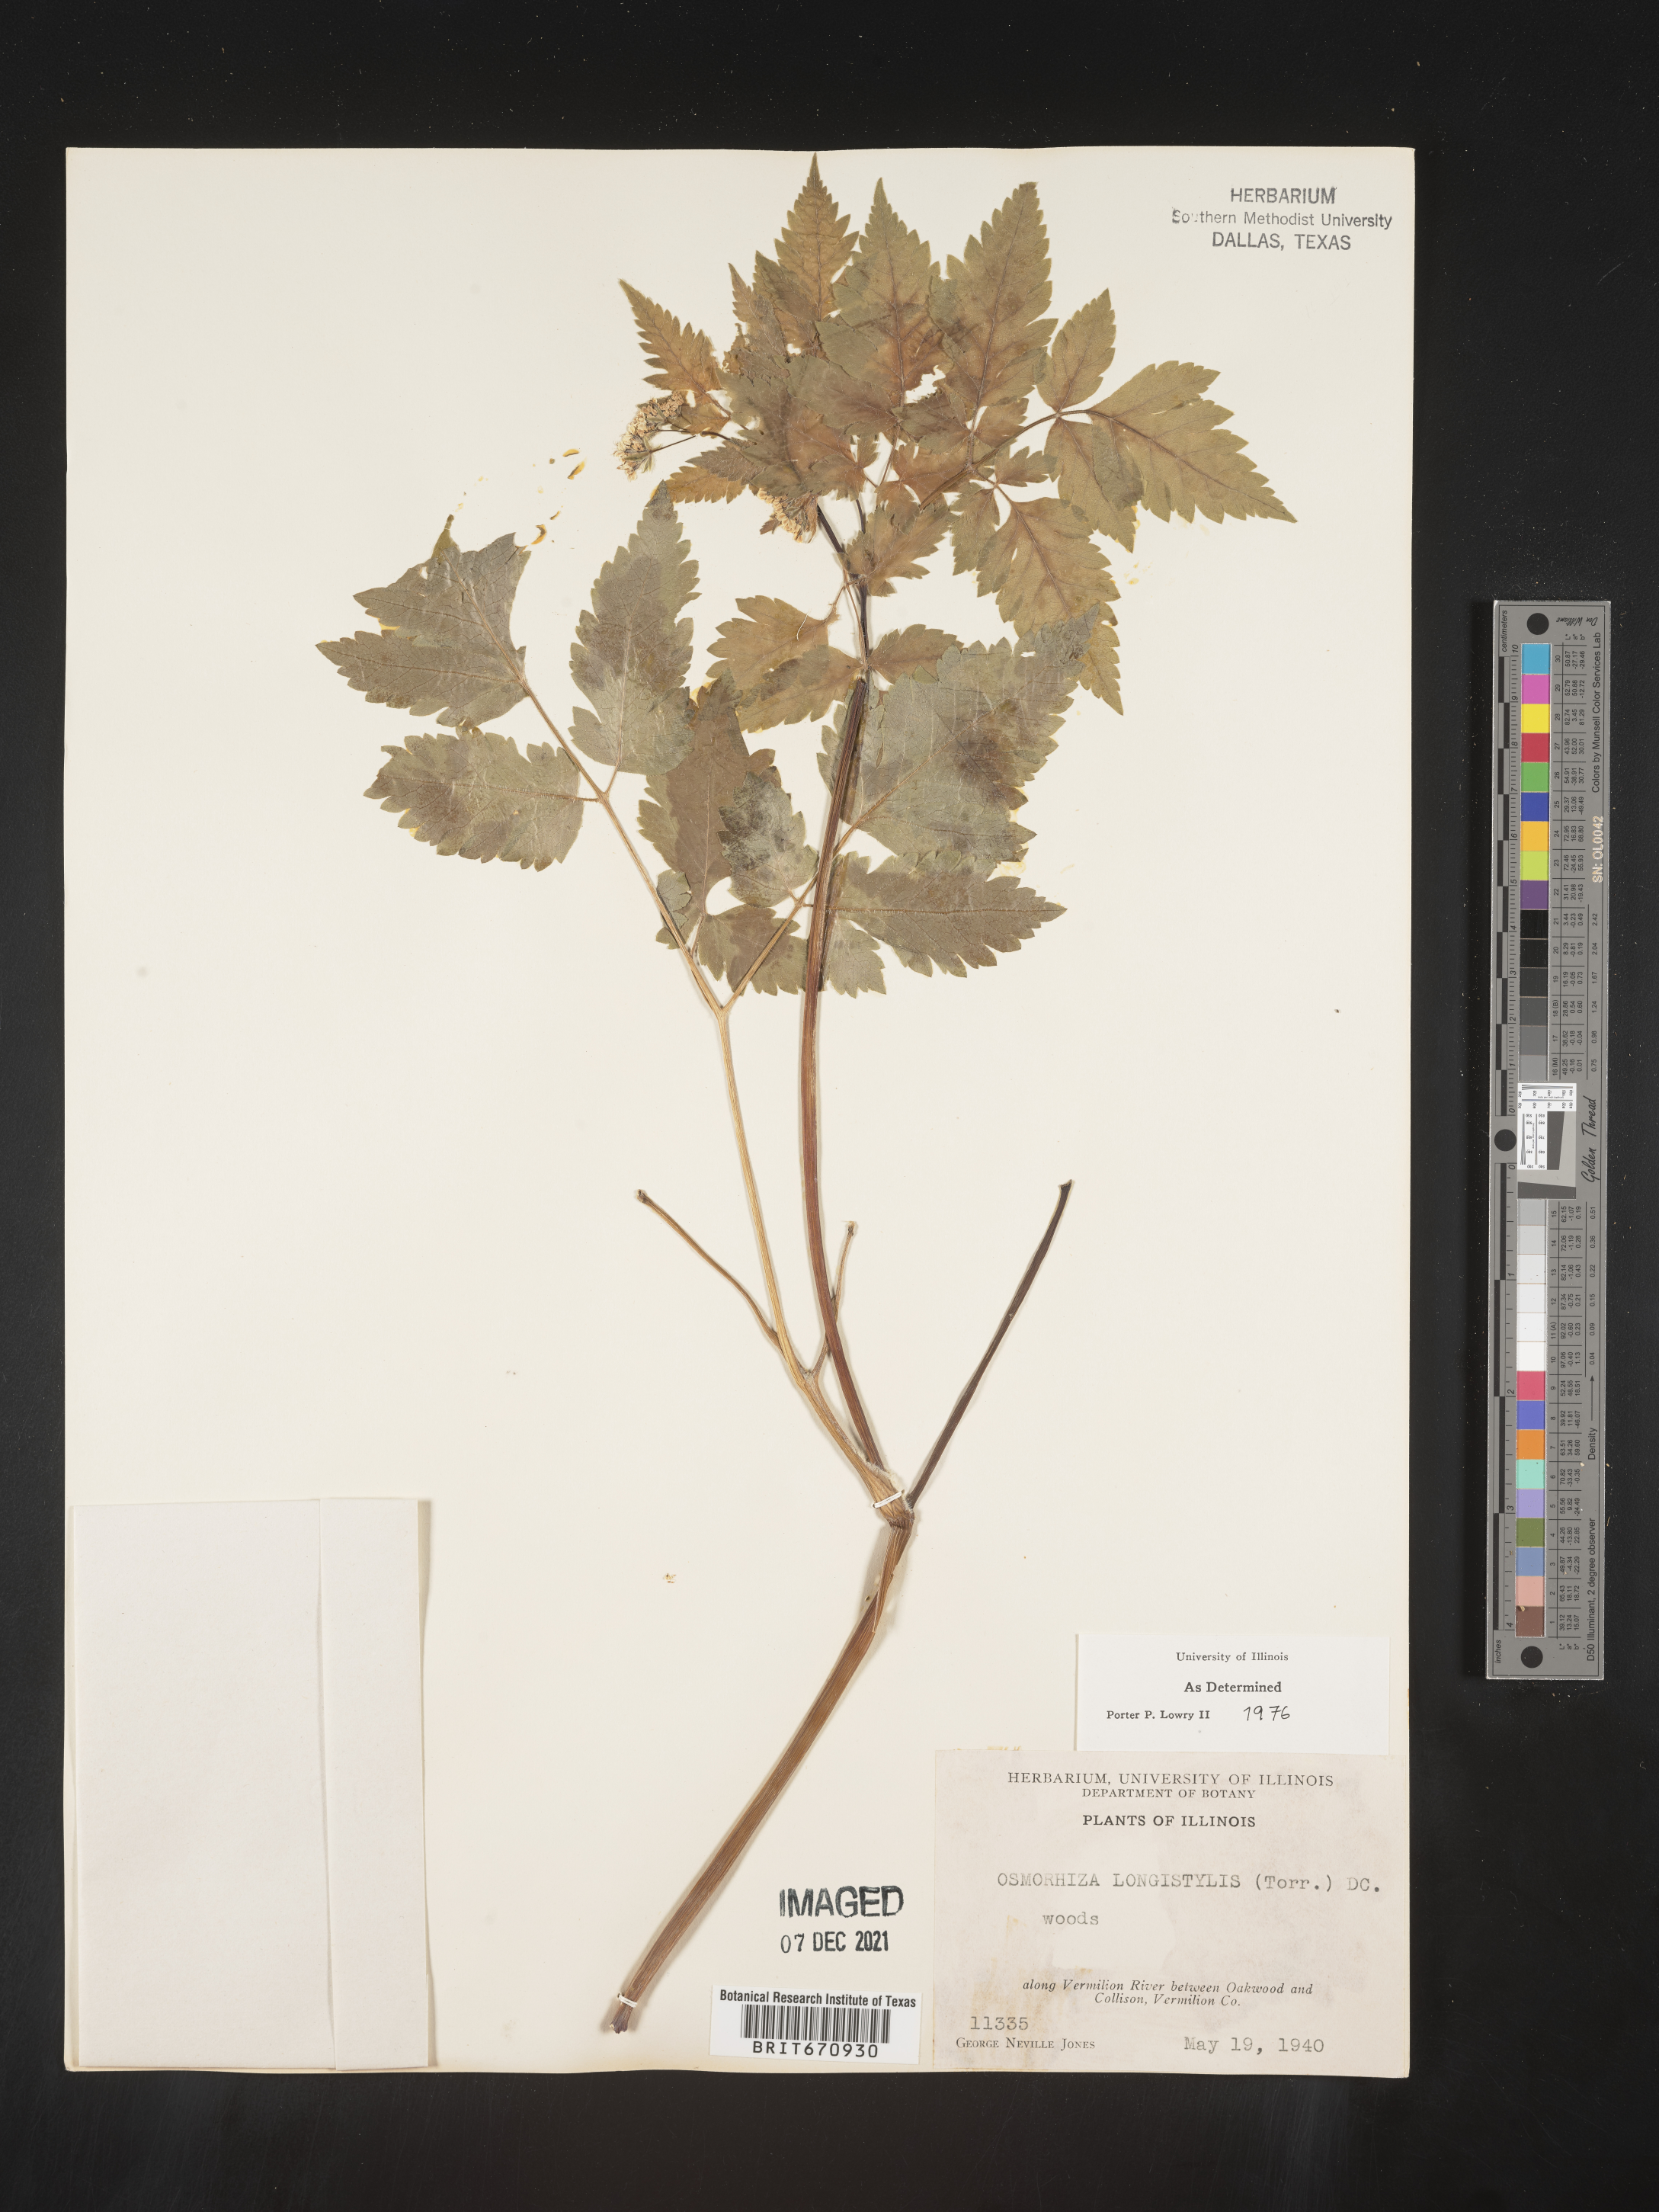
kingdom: Plantae
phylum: Tracheophyta
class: Magnoliopsida
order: Apiales
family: Apiaceae
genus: Osmorhiza
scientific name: Osmorhiza longistylis
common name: Smooth sweet cicely
